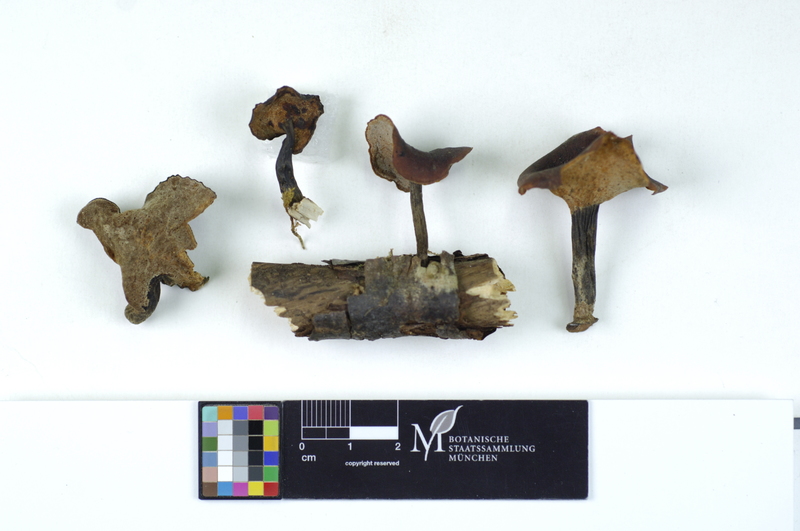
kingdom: Fungi
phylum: Basidiomycota
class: Agaricomycetes
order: Polyporales
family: Polyporaceae
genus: Picipes
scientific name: Picipes melanopus
